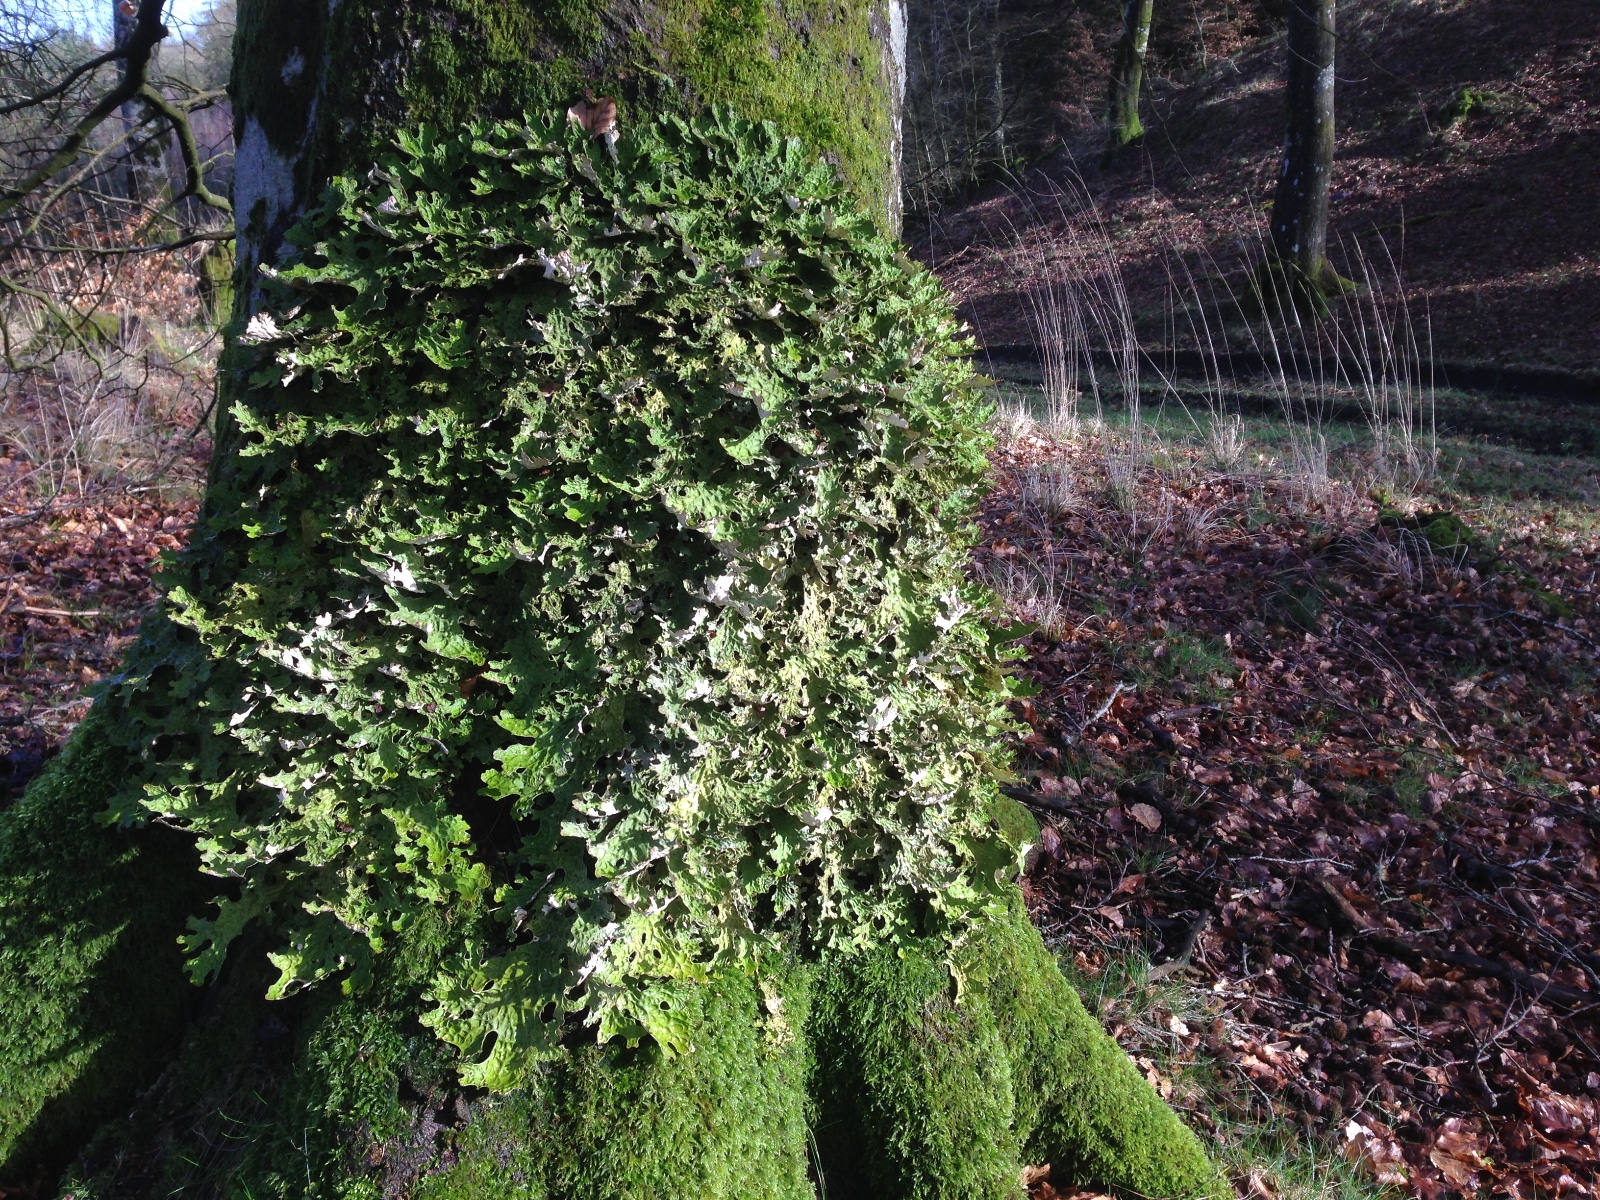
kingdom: Fungi
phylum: Ascomycota
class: Lecanoromycetes
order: Peltigerales
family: Lobariaceae
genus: Lobaria
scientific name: Lobaria pulmonaria
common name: almindelig lungelav
